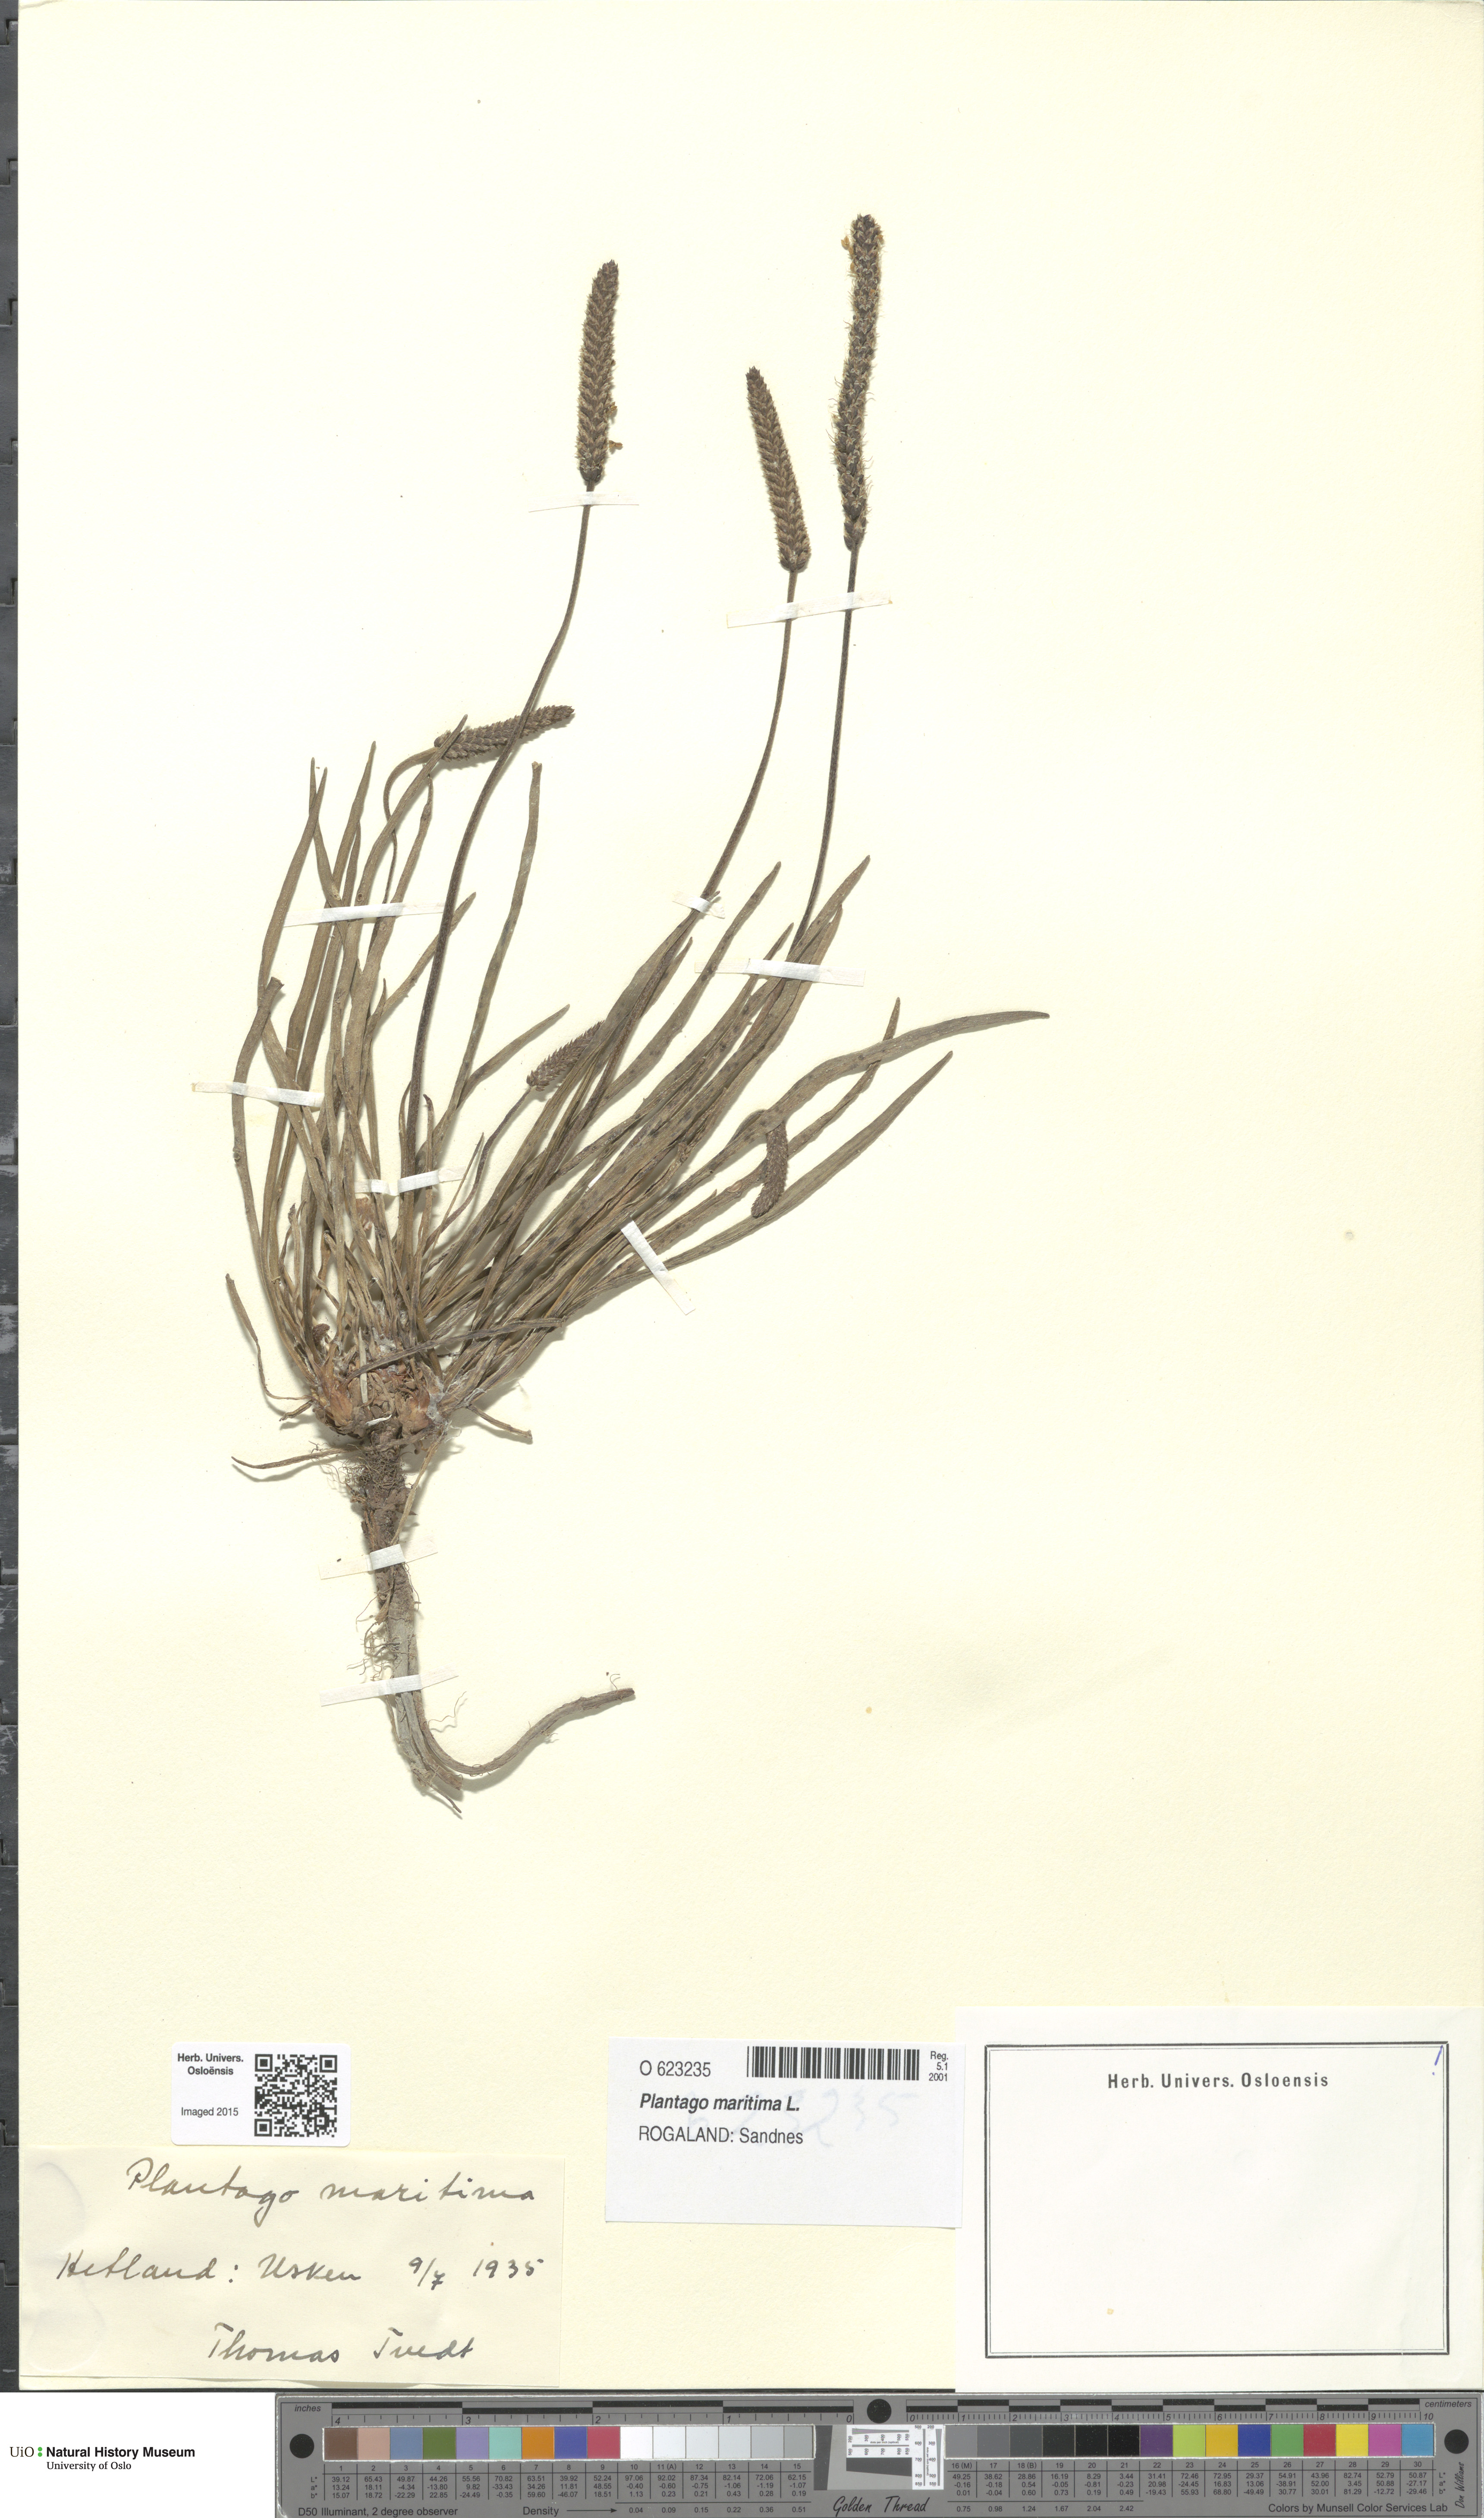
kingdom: Plantae
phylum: Tracheophyta
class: Magnoliopsida
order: Lamiales
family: Plantaginaceae
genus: Plantago
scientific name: Plantago maritima
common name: Sea plantain
